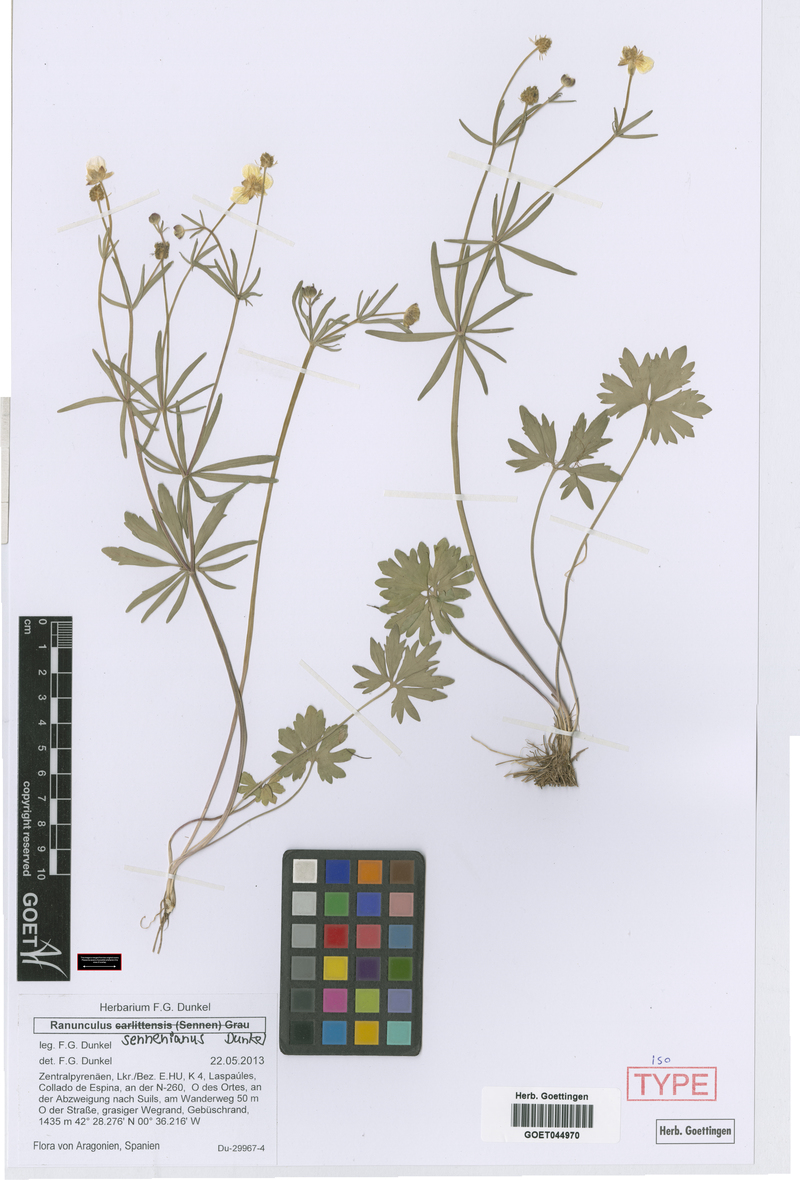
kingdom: Plantae
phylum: Tracheophyta
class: Magnoliopsida
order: Ranunculales
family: Ranunculaceae
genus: Ranunculus
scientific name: Ranunculus sennenianus
